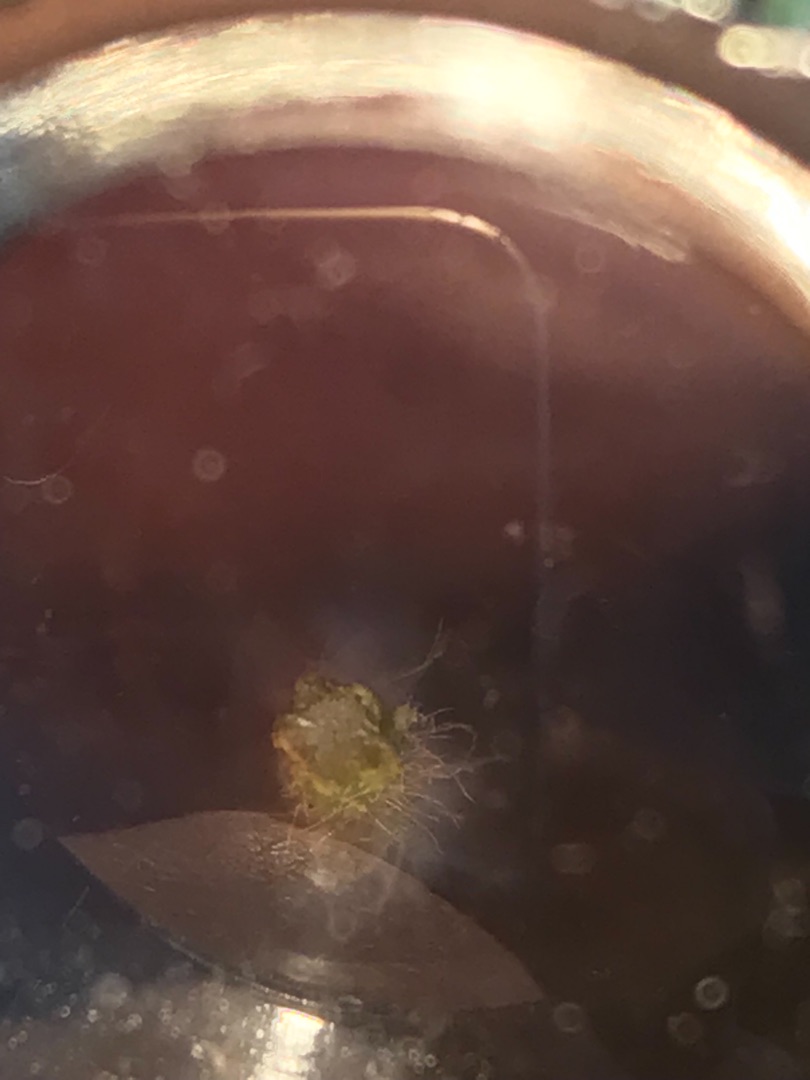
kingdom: Plantae
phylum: Tracheophyta
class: Magnoliopsida
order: Lamiales
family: Plantaginaceae
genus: Plantago
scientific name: Plantago lanceolata
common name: Lancet-vejbred
